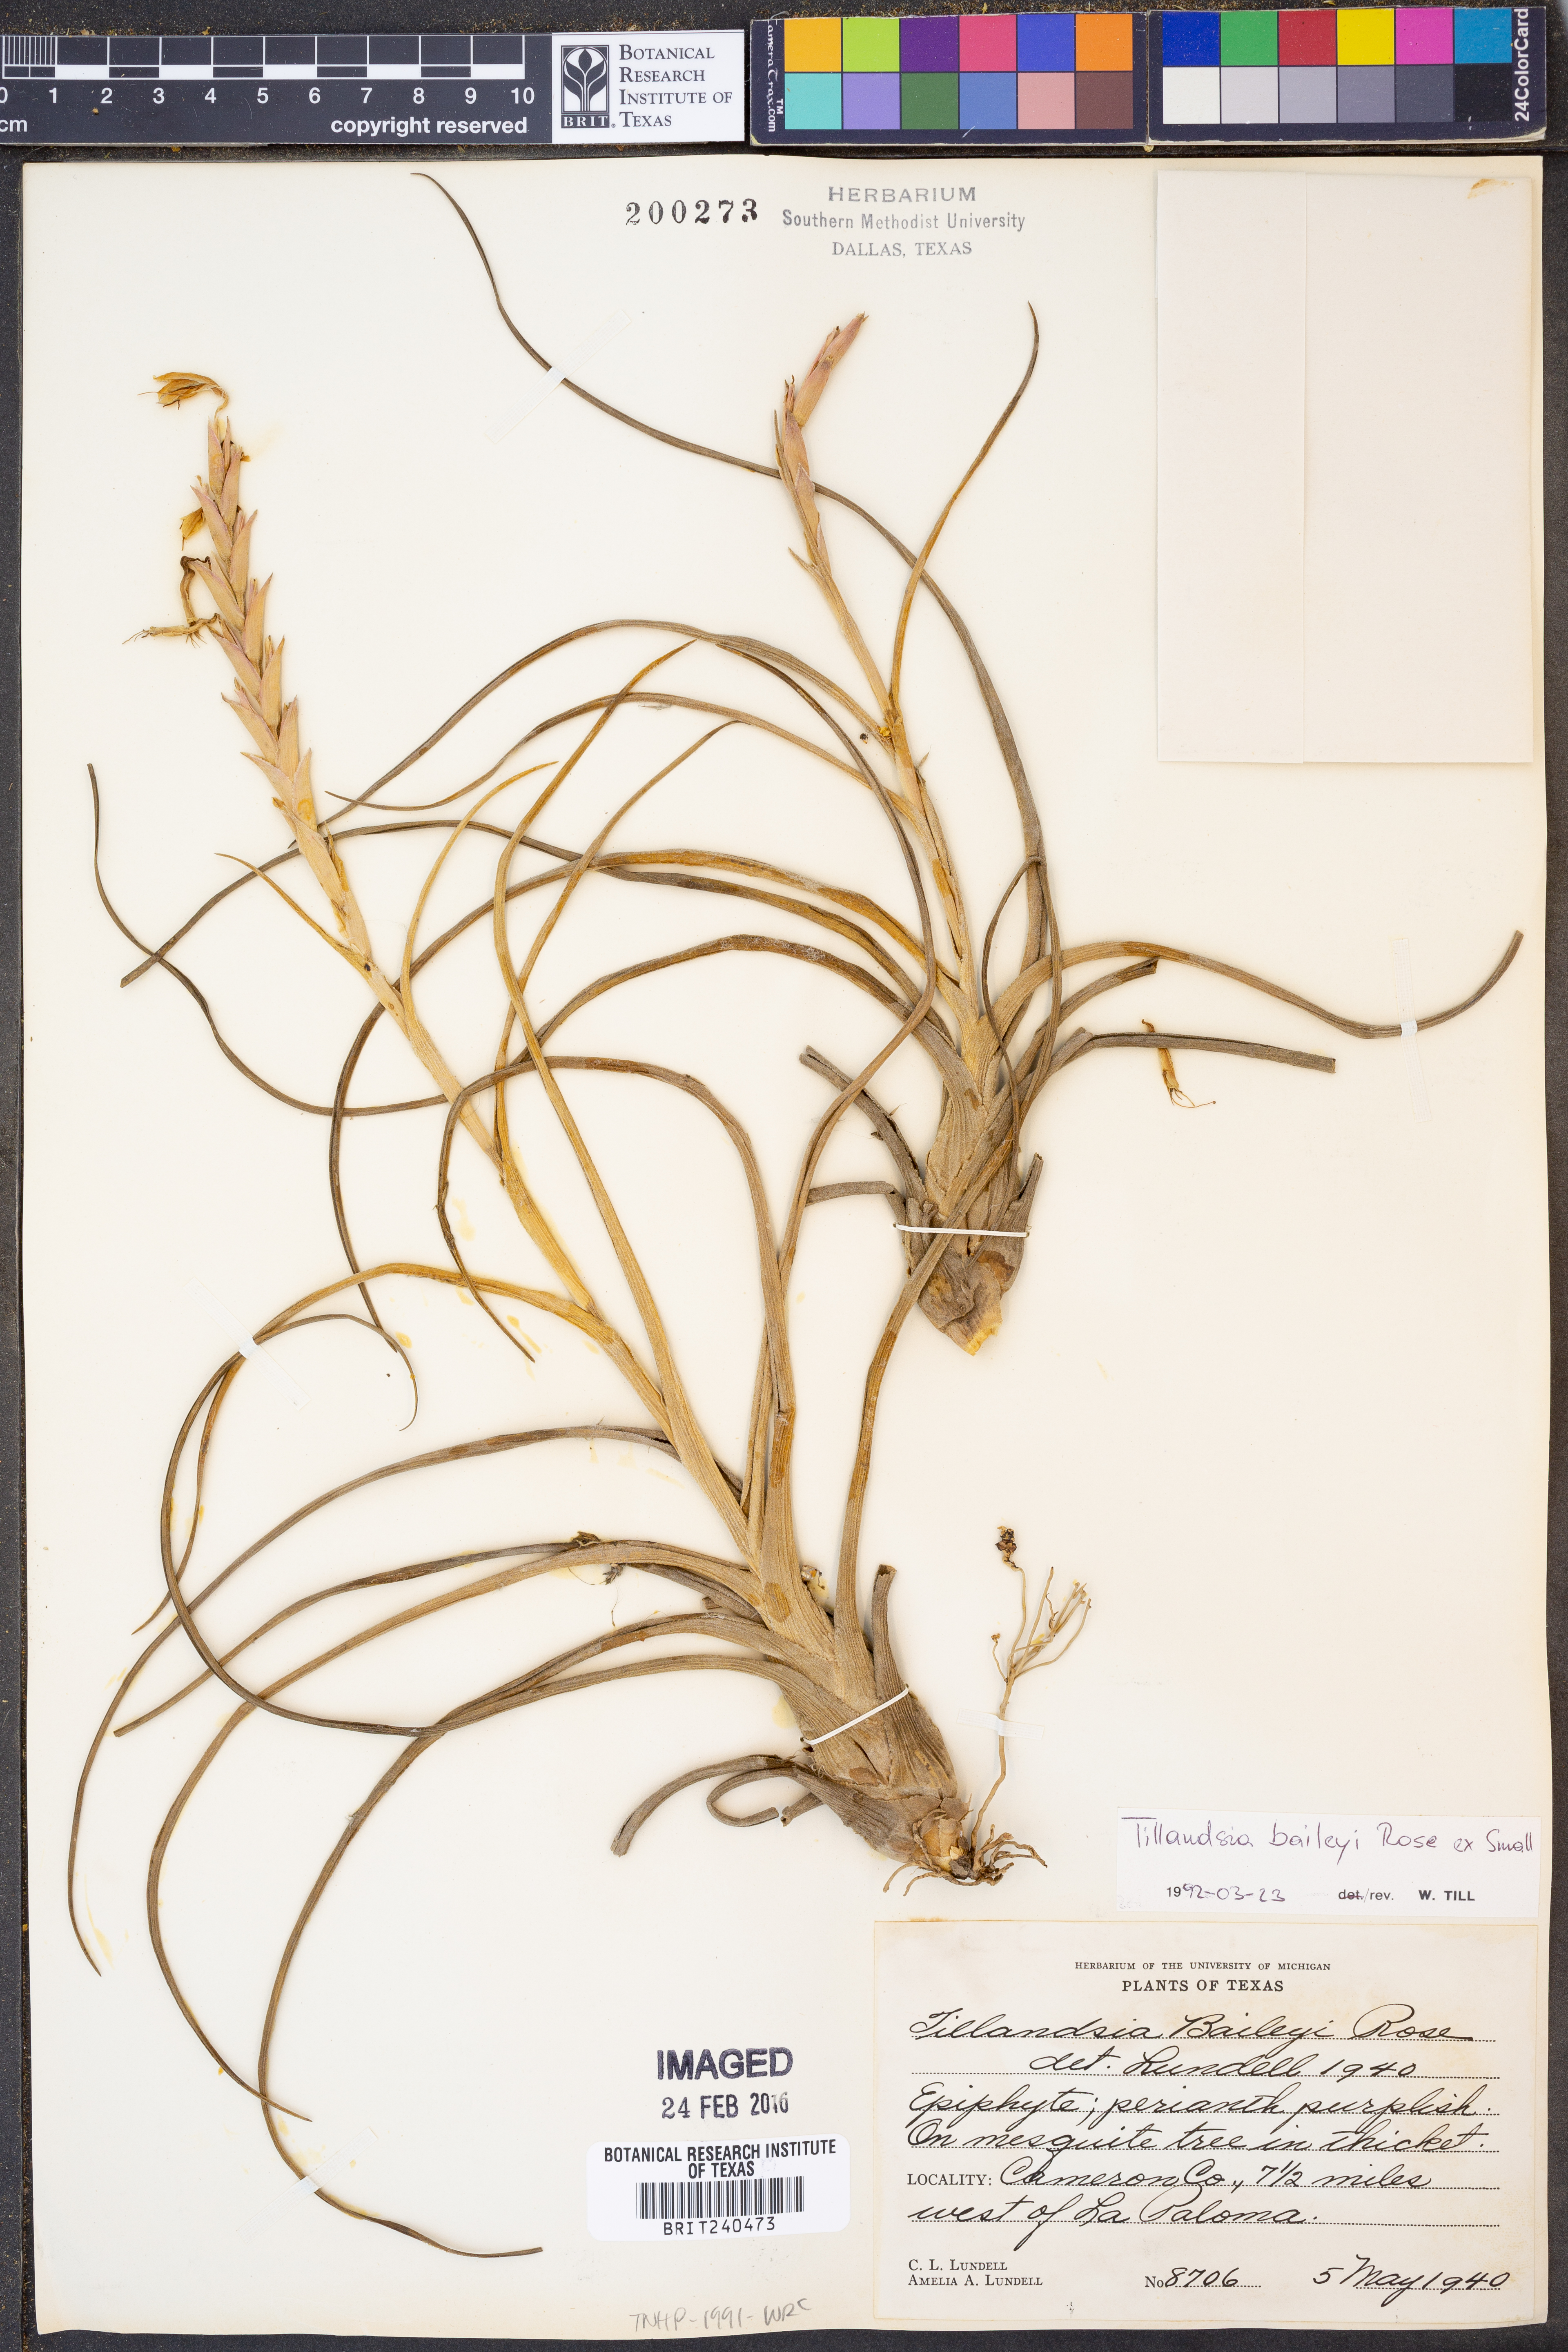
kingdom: Plantae
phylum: Tracheophyta
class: Liliopsida
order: Poales
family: Bromeliaceae
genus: Tillandsia
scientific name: Tillandsia baileyi
